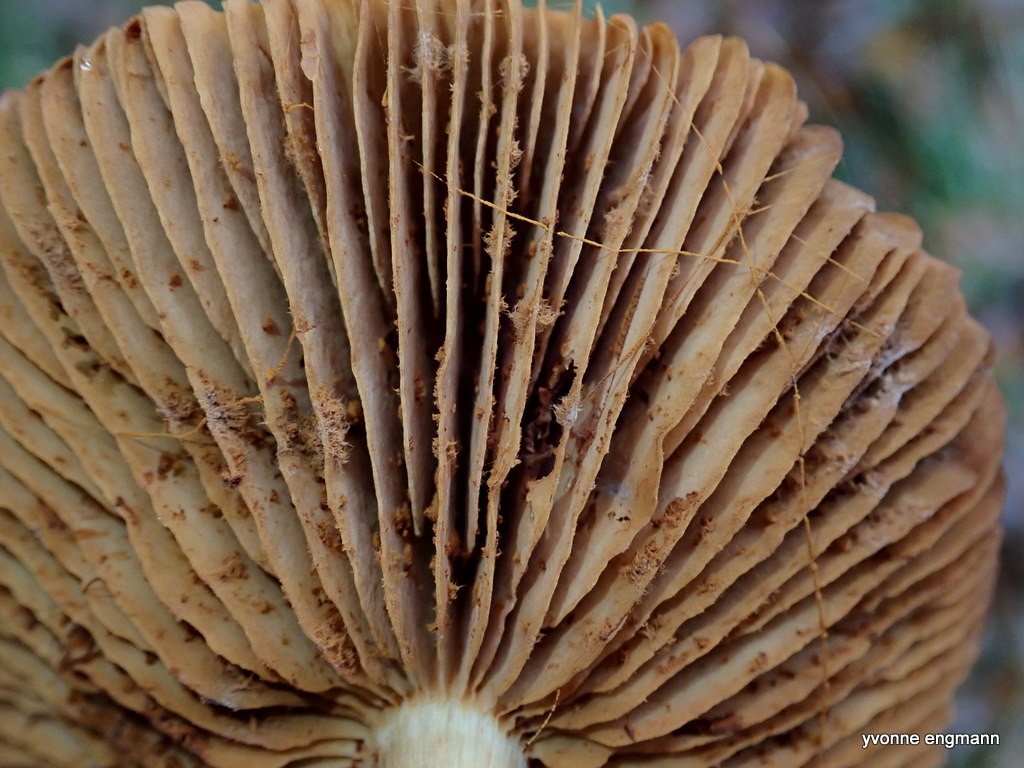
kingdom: Fungi
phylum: Basidiomycota
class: Agaricomycetes
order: Agaricales
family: Cortinariaceae
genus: Cortinarius
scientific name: Cortinarius
